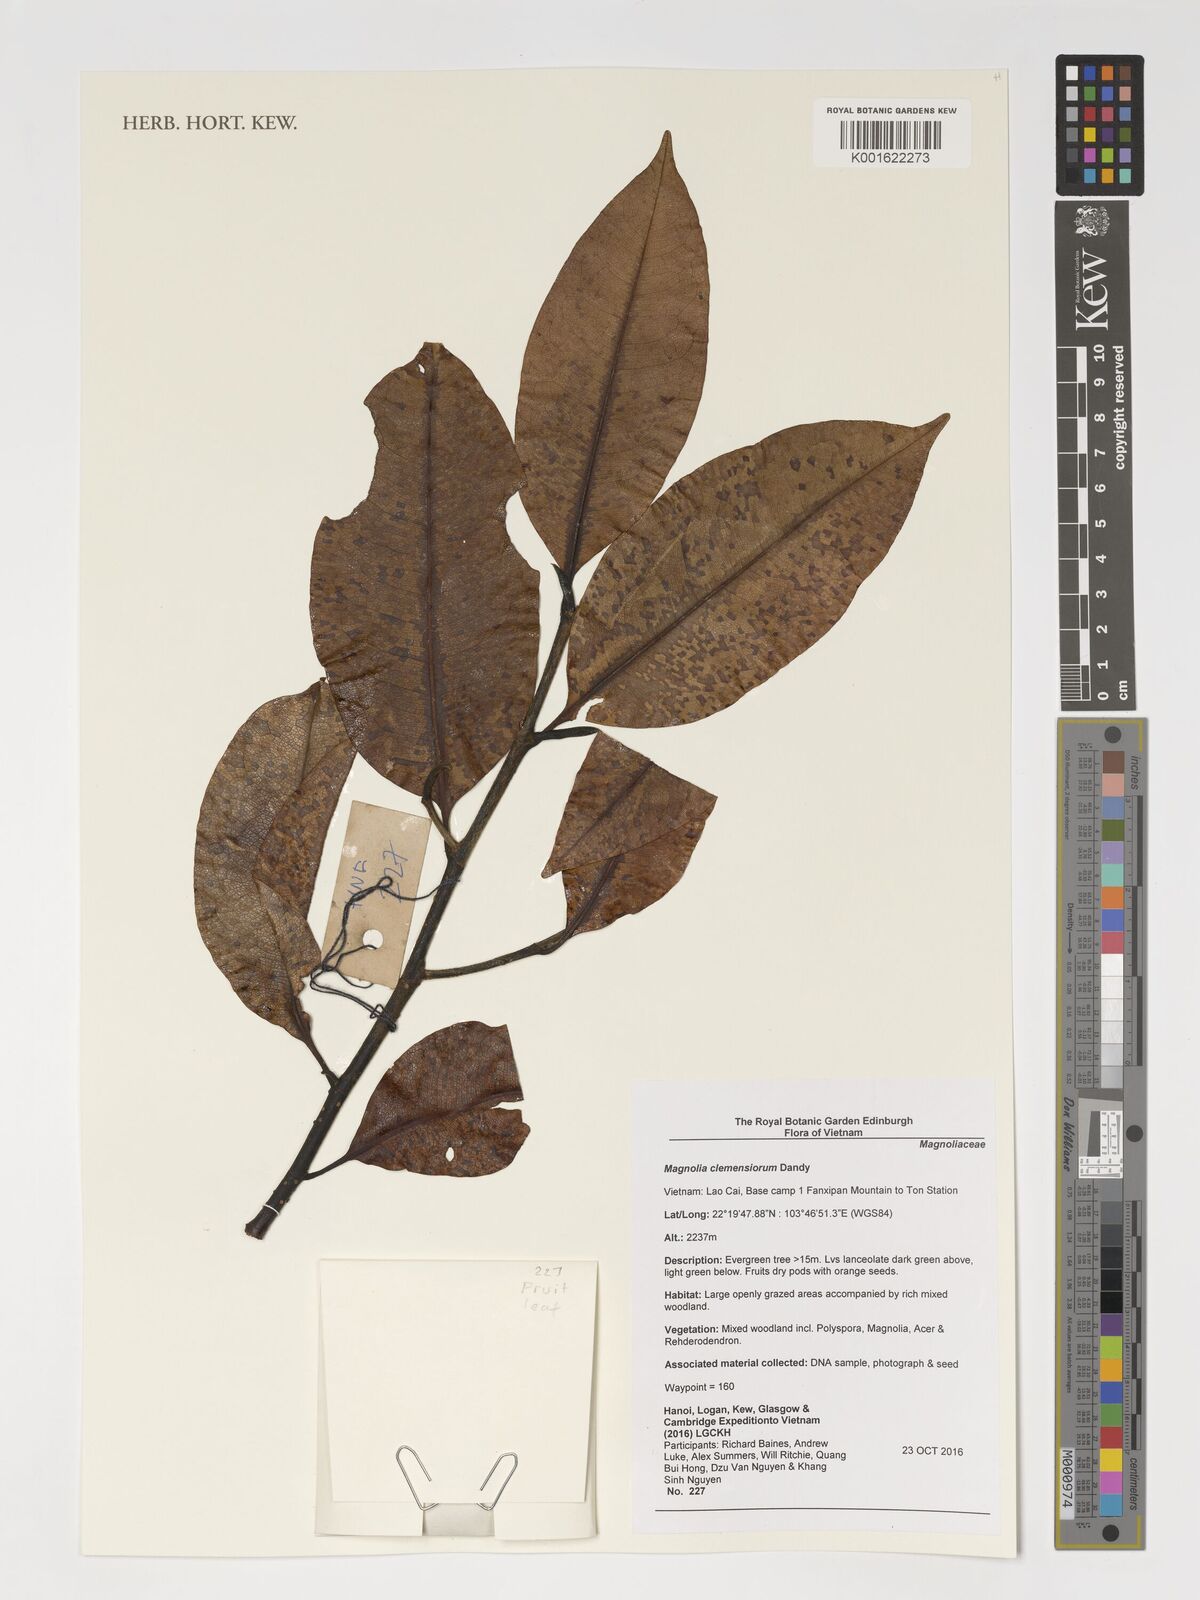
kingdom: Plantae
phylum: Tracheophyta
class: Magnoliopsida
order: Magnoliales
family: Magnoliaceae
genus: Magnolia
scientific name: Magnolia clemensiorum
